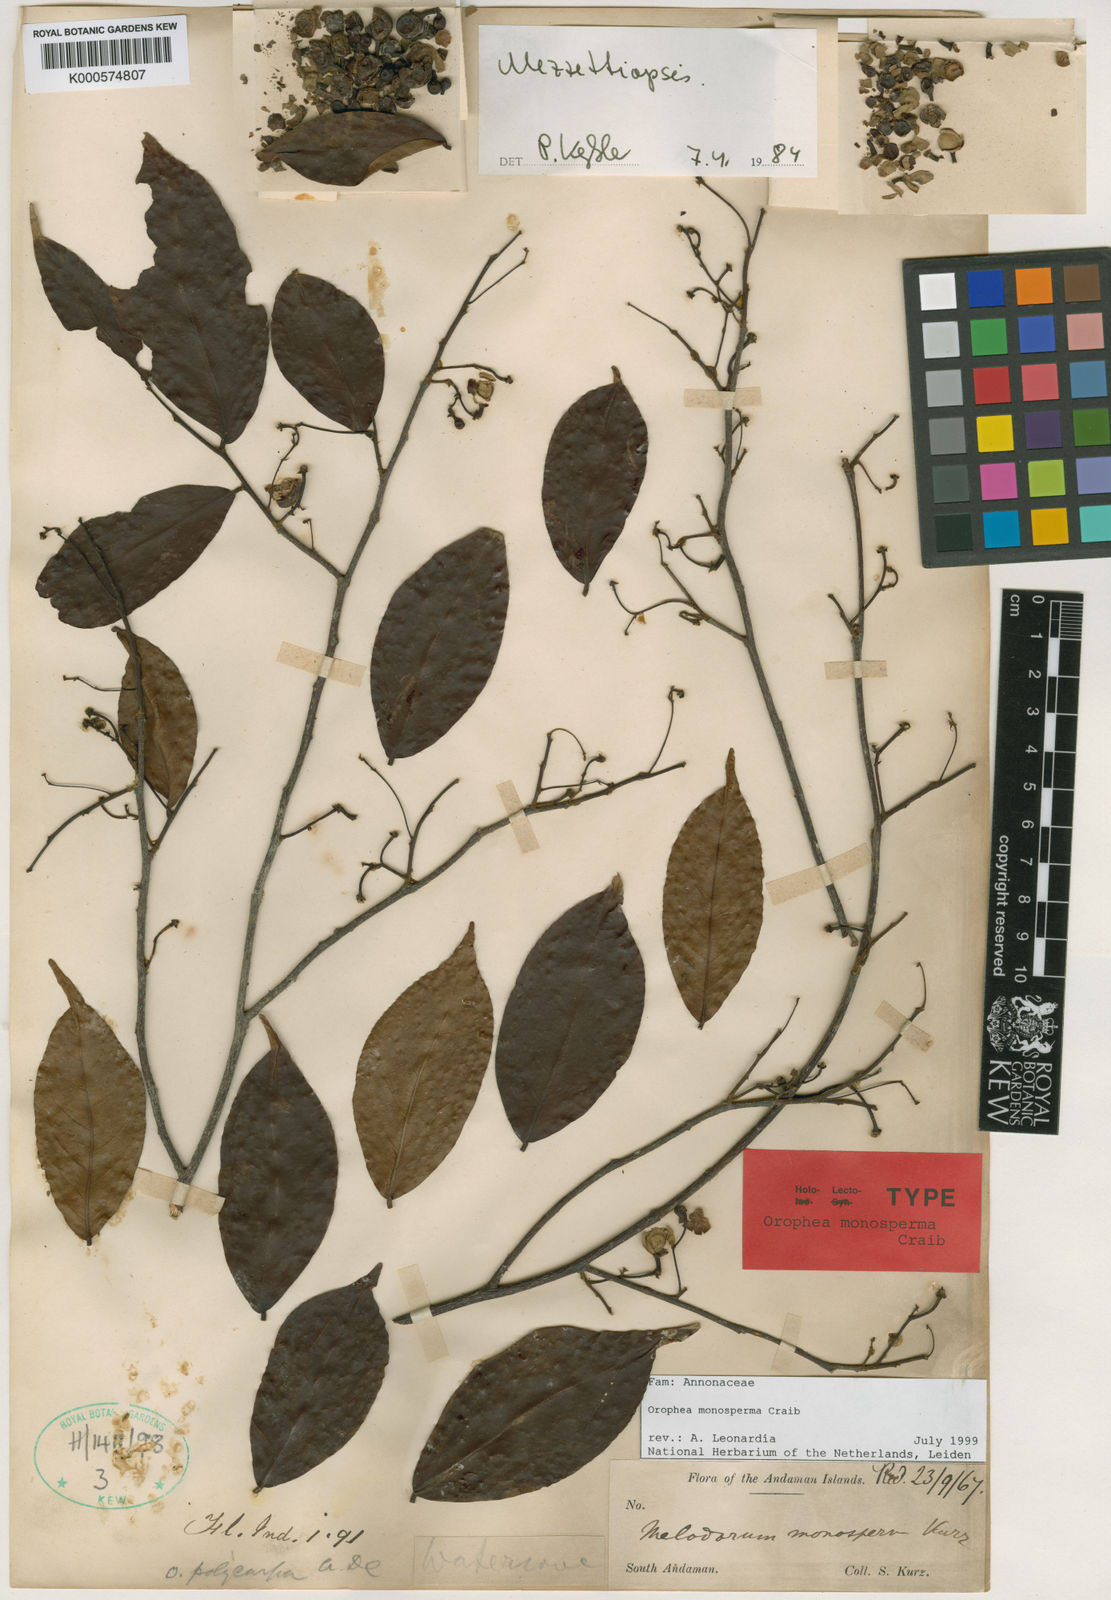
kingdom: Plantae
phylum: Tracheophyta
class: Magnoliopsida
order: Magnoliales
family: Annonaceae
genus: Orophea
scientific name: Orophea monosperma
